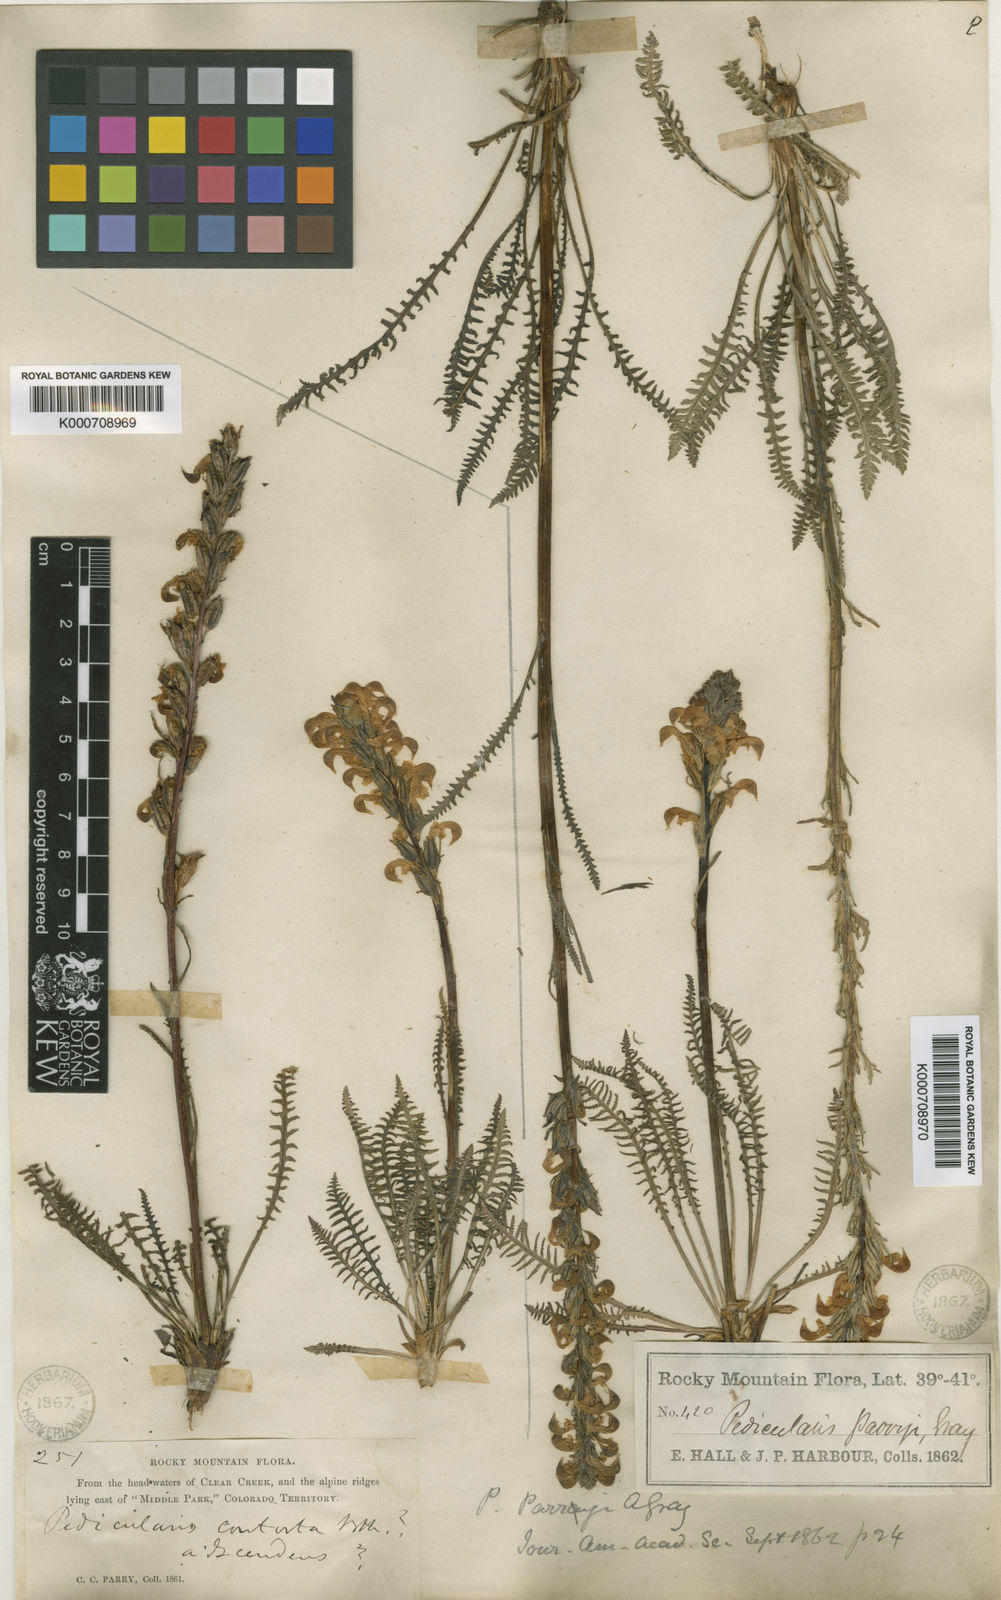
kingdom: Plantae
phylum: Tracheophyta
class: Magnoliopsida
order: Lamiales
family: Orobanchaceae
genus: Pedicularis
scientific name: Pedicularis parryi
